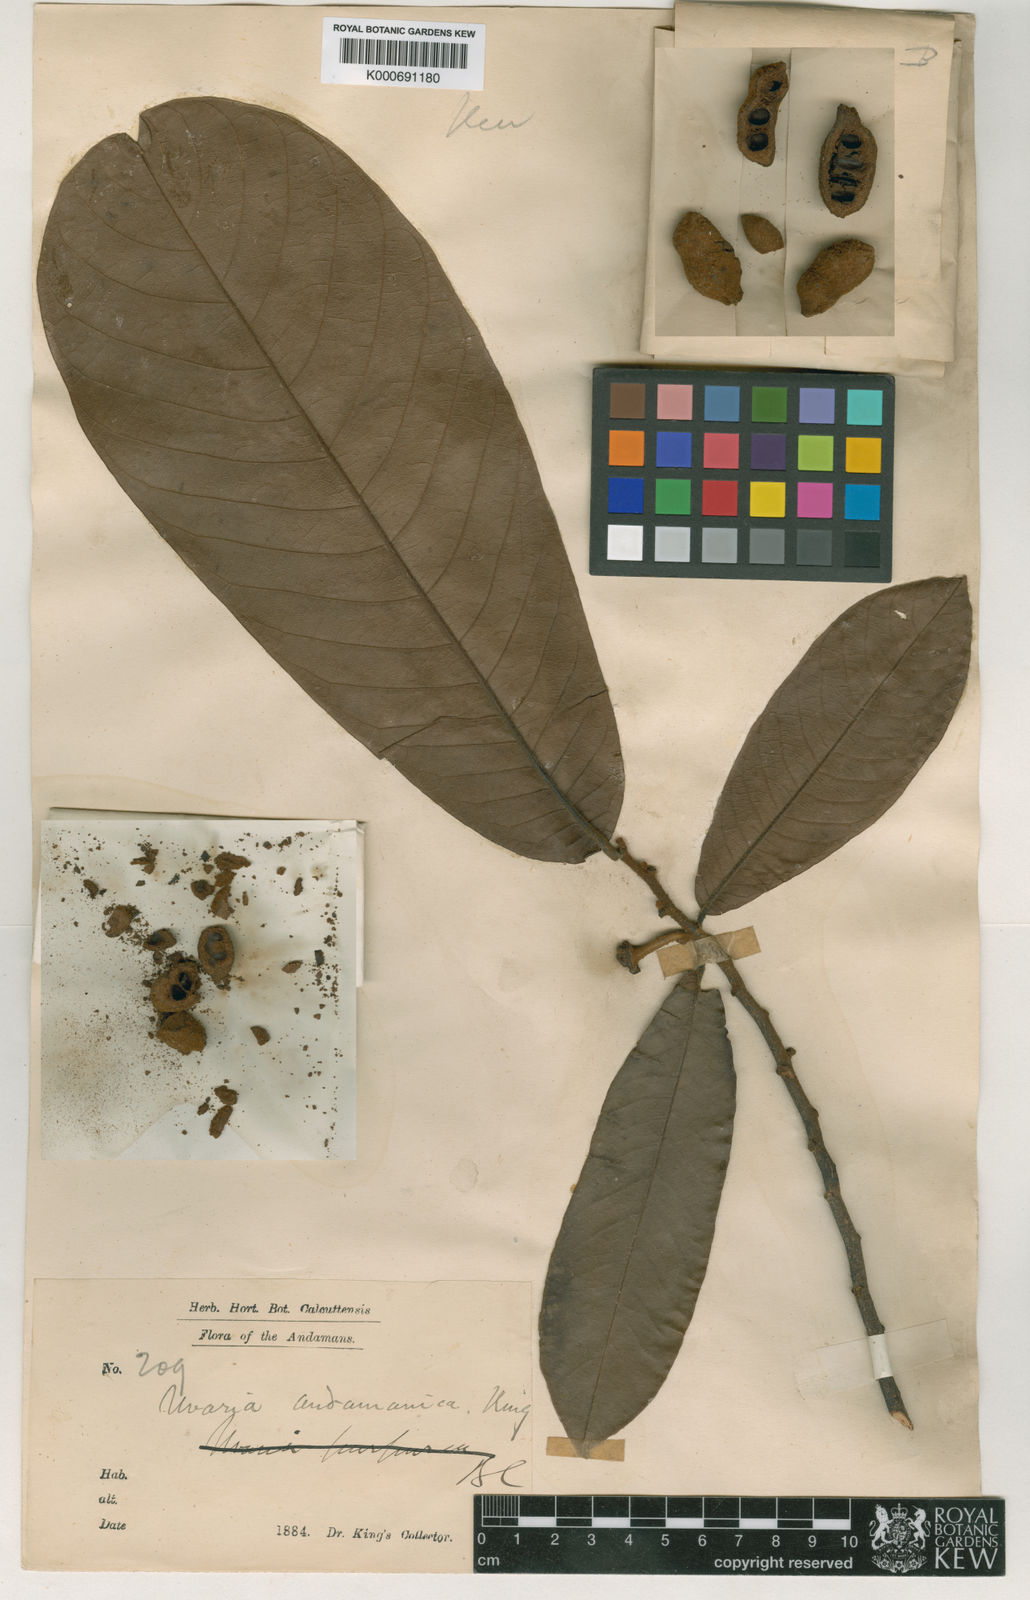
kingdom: Plantae
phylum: Tracheophyta
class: Magnoliopsida
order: Magnoliales
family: Annonaceae
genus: Uvaria
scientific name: Uvaria andamanica
